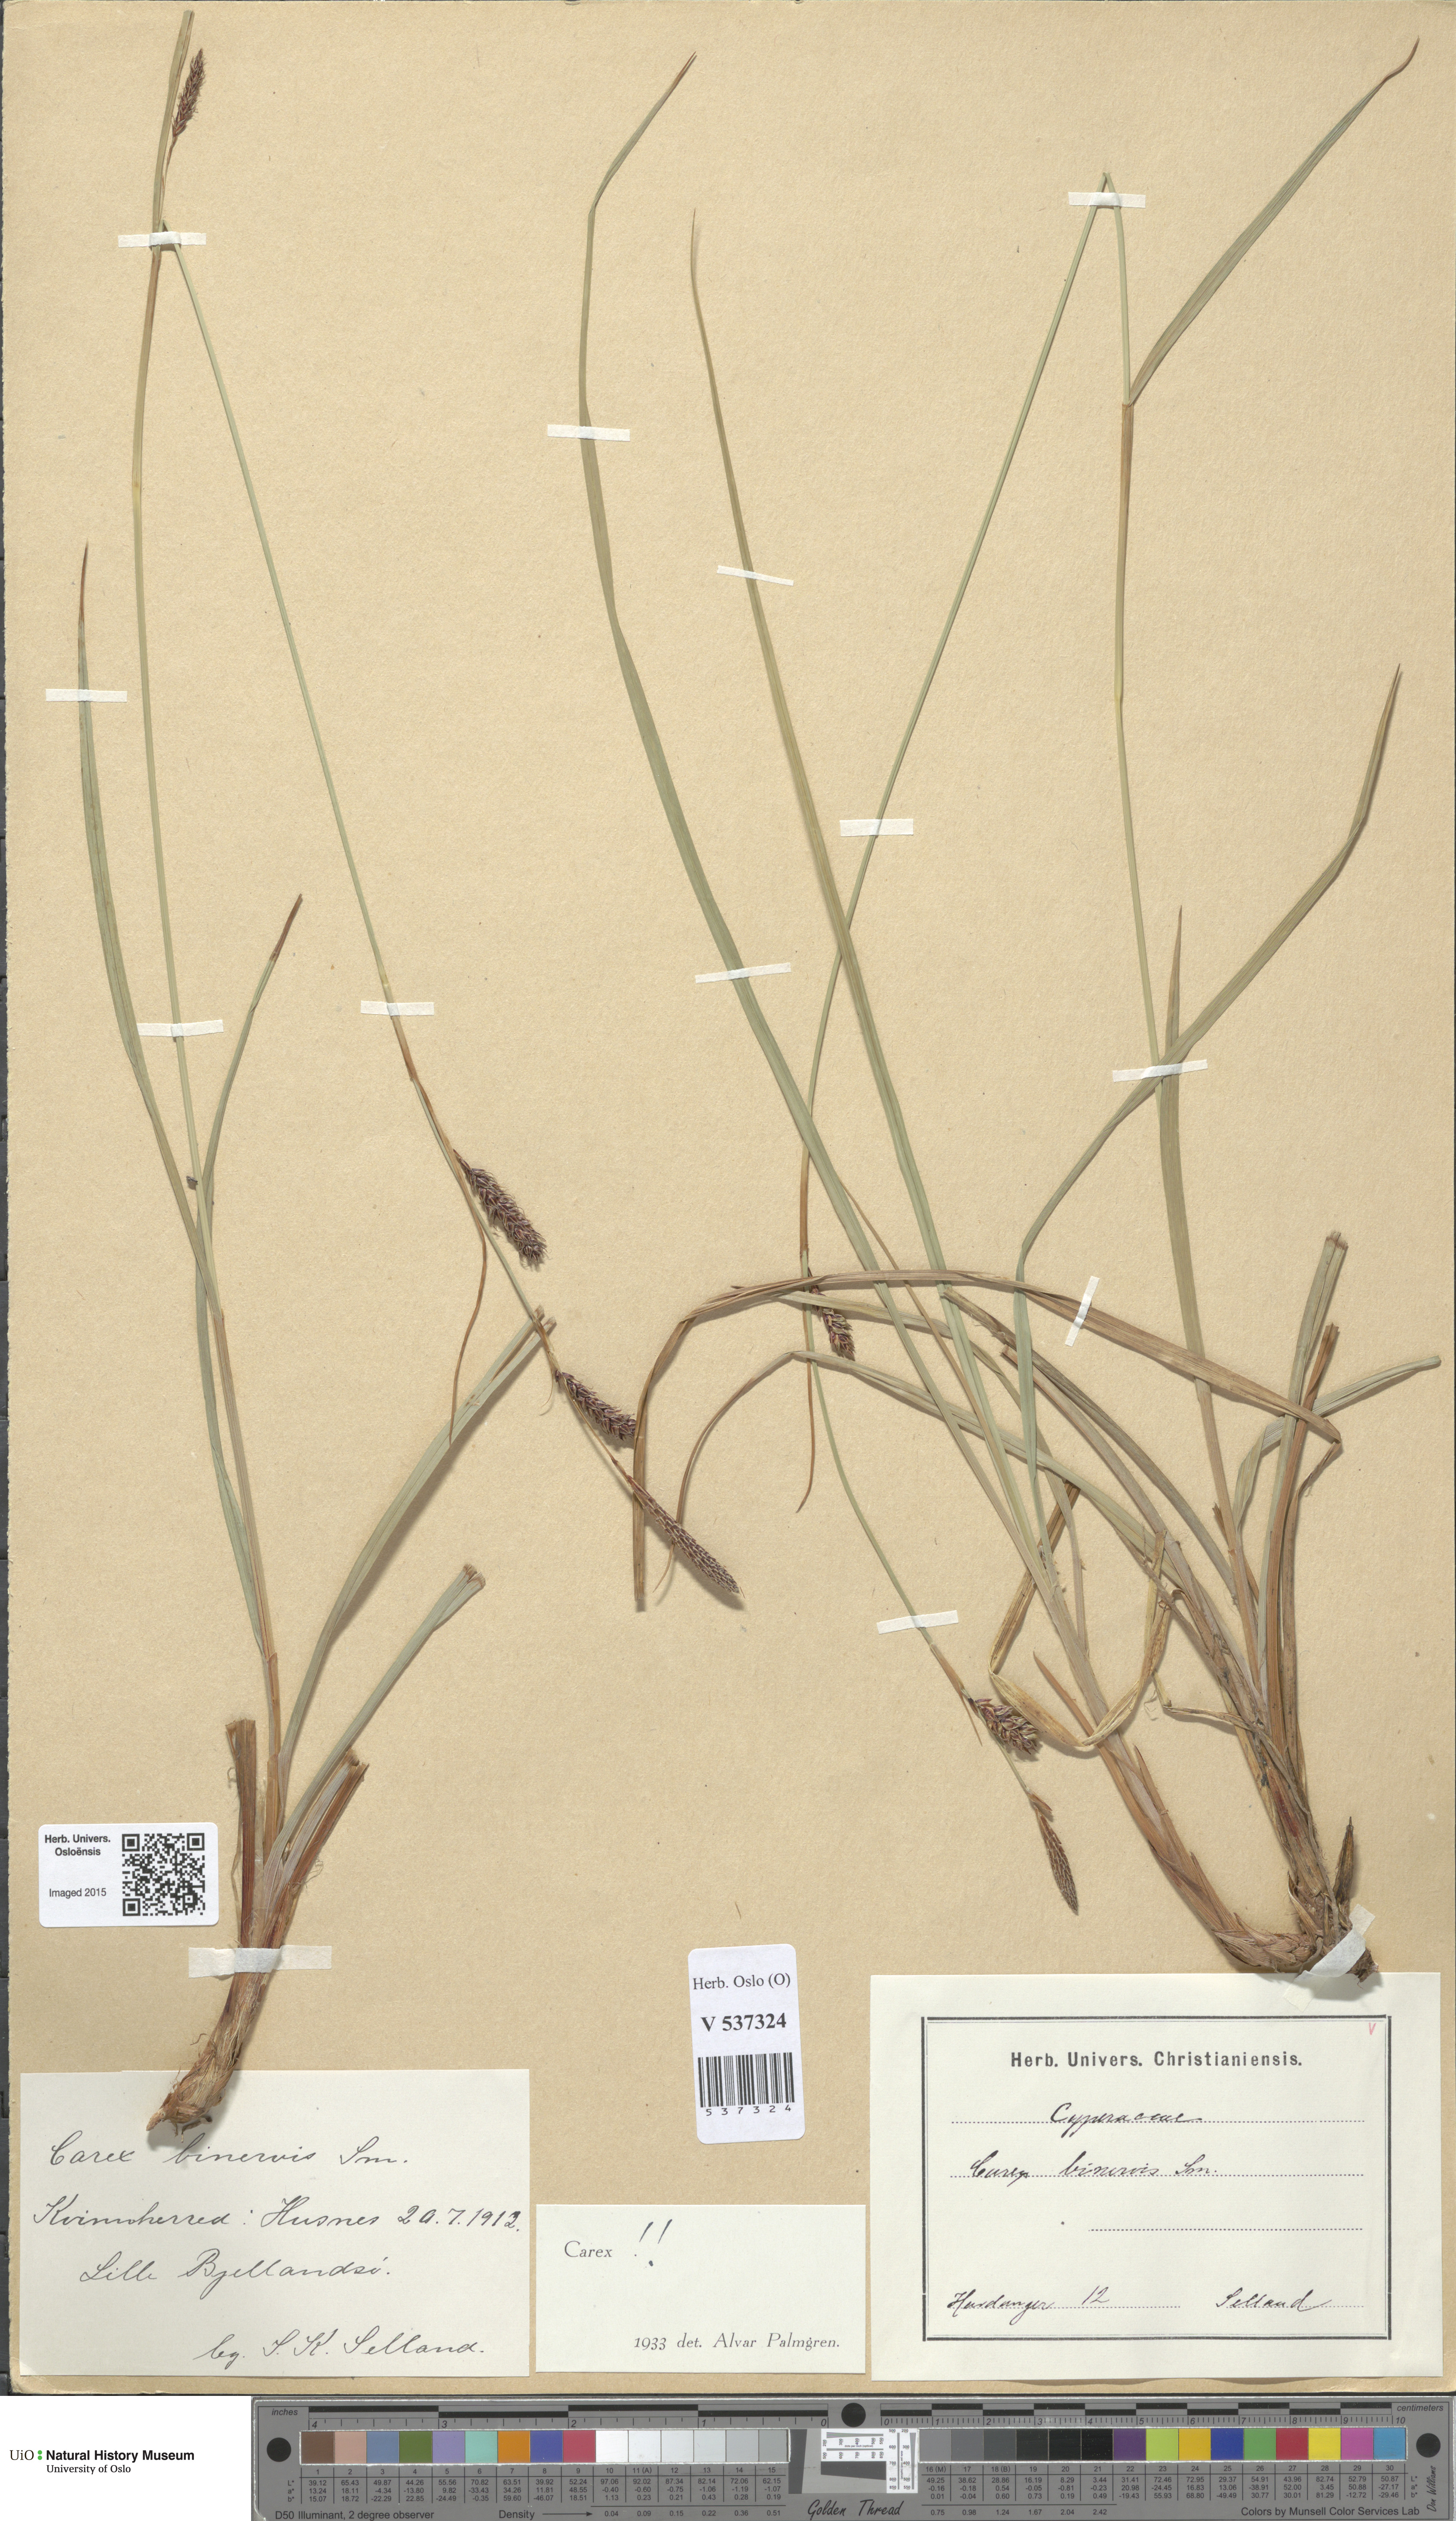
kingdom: Plantae
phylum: Tracheophyta
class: Liliopsida
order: Poales
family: Cyperaceae
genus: Carex
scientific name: Carex binervis
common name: Green-ribbed sedge
